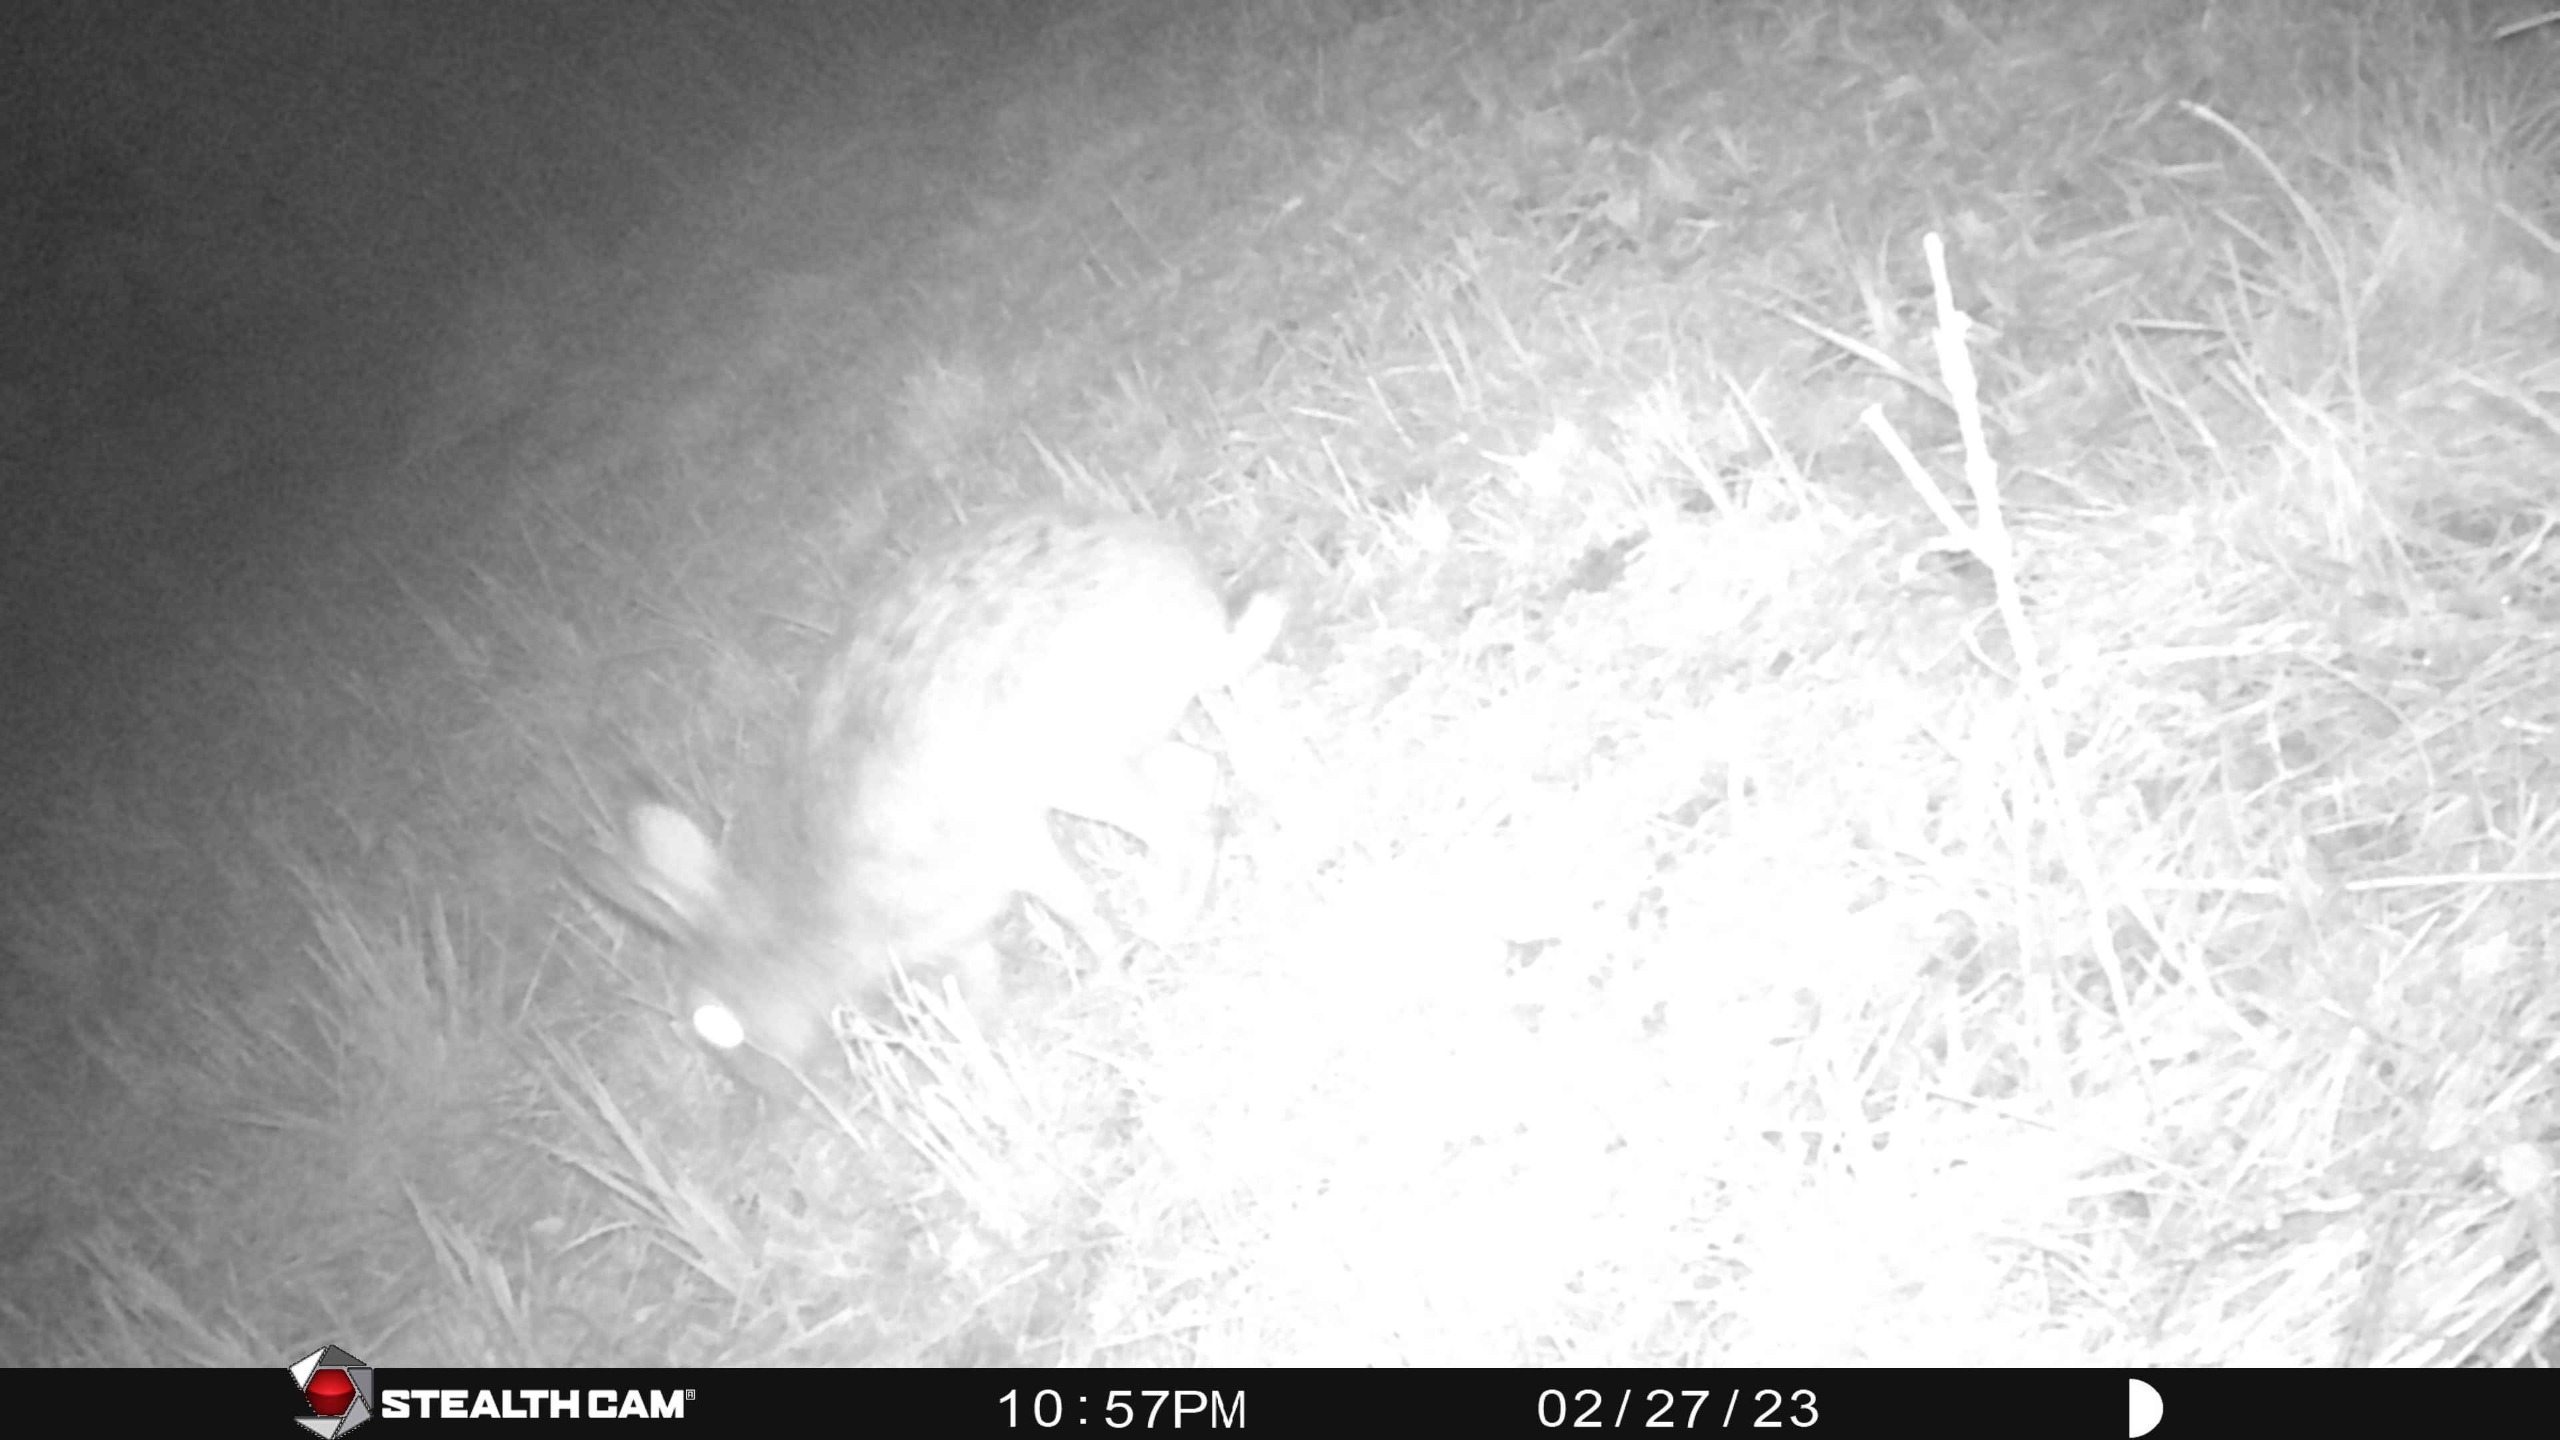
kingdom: Animalia
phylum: Chordata
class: Mammalia
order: Lagomorpha
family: Leporidae
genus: Lepus
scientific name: Lepus europaeus
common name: Hare
